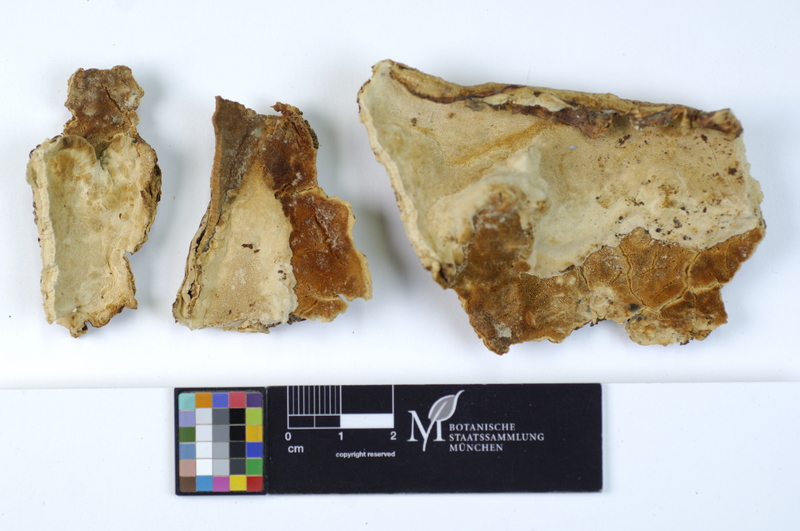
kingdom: Fungi
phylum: Basidiomycota
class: Agaricomycetes
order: Polyporales
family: Polyporaceae
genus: Perenniporia
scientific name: Perenniporia medulla-panis
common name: Pancake crust
